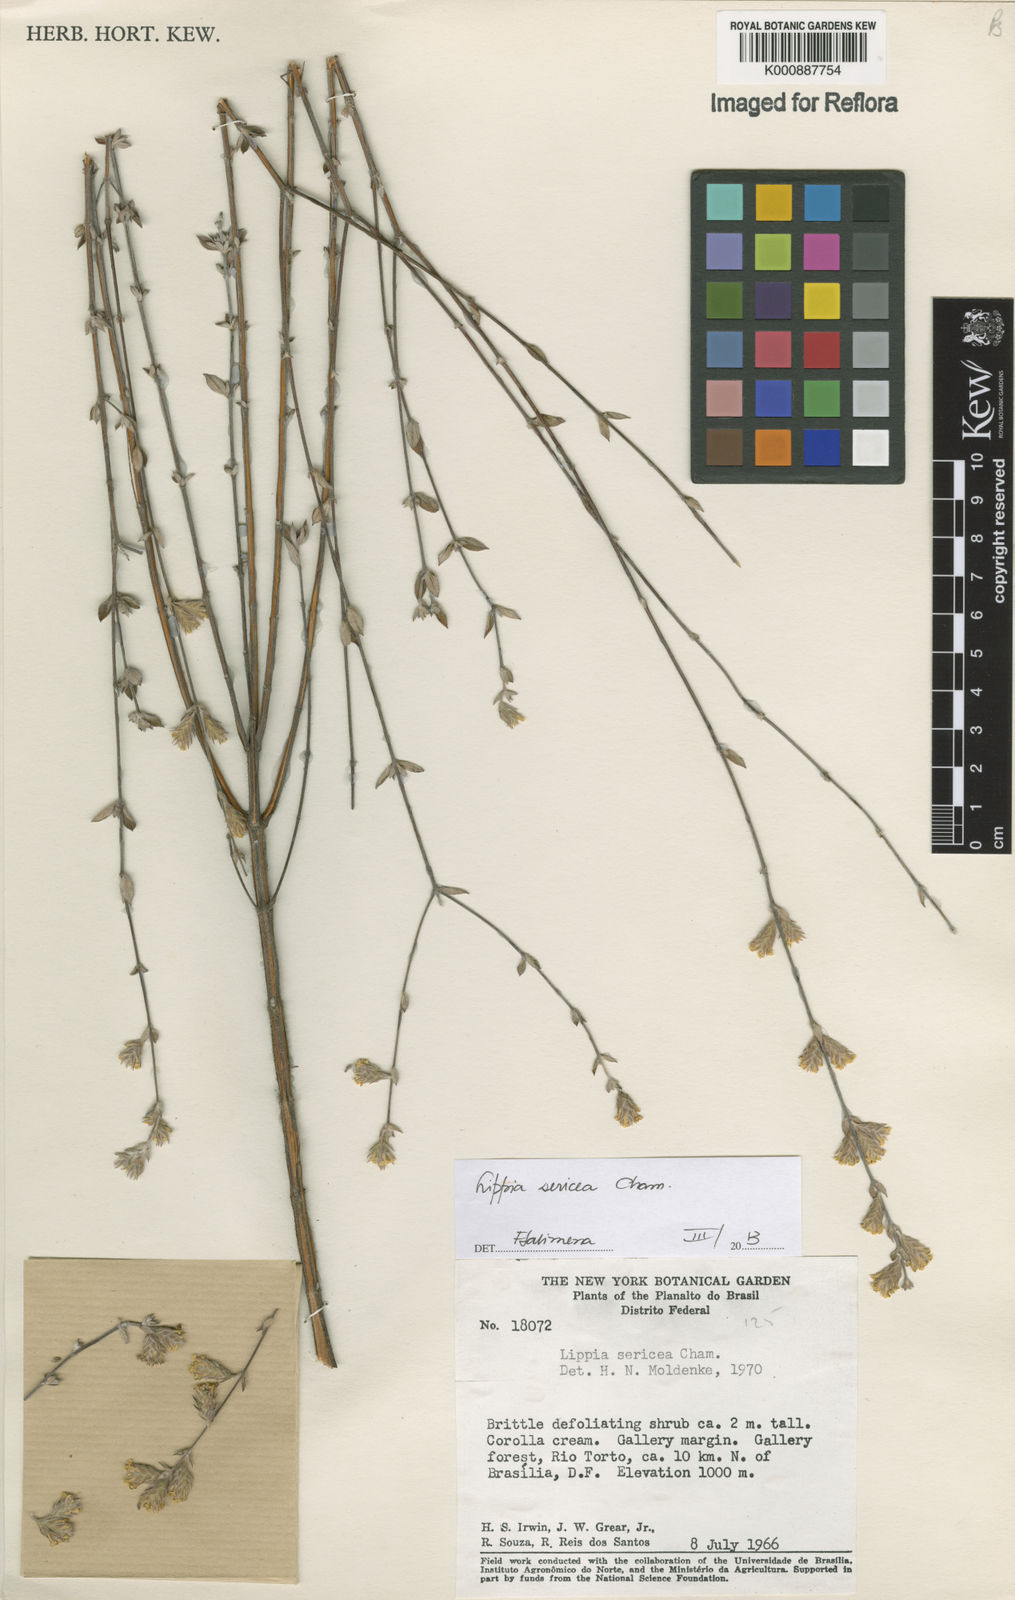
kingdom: Plantae
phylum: Tracheophyta
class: Magnoliopsida
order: Lamiales
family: Verbenaceae
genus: Lippia
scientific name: Lippia sericea
